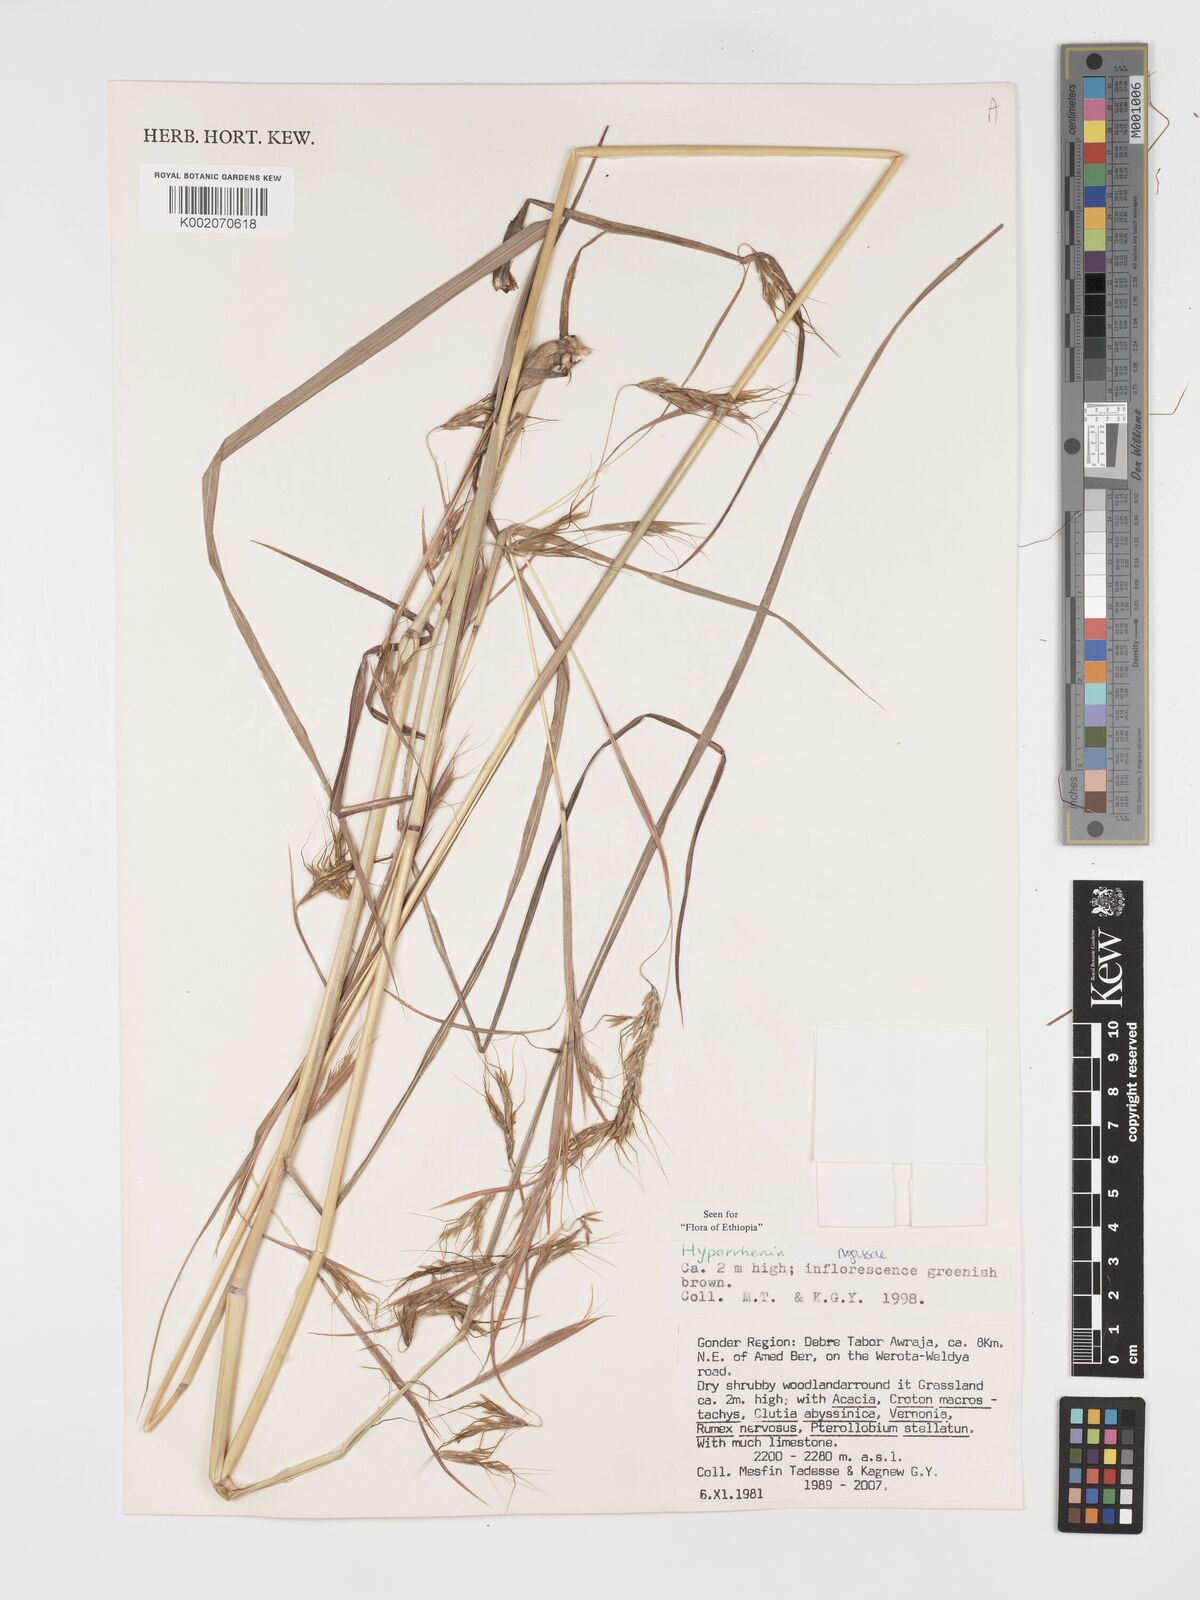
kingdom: Plantae
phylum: Tracheophyta
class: Liliopsida
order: Poales
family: Poaceae
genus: Hyparrhenia
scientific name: Hyparrhenia nyassae
